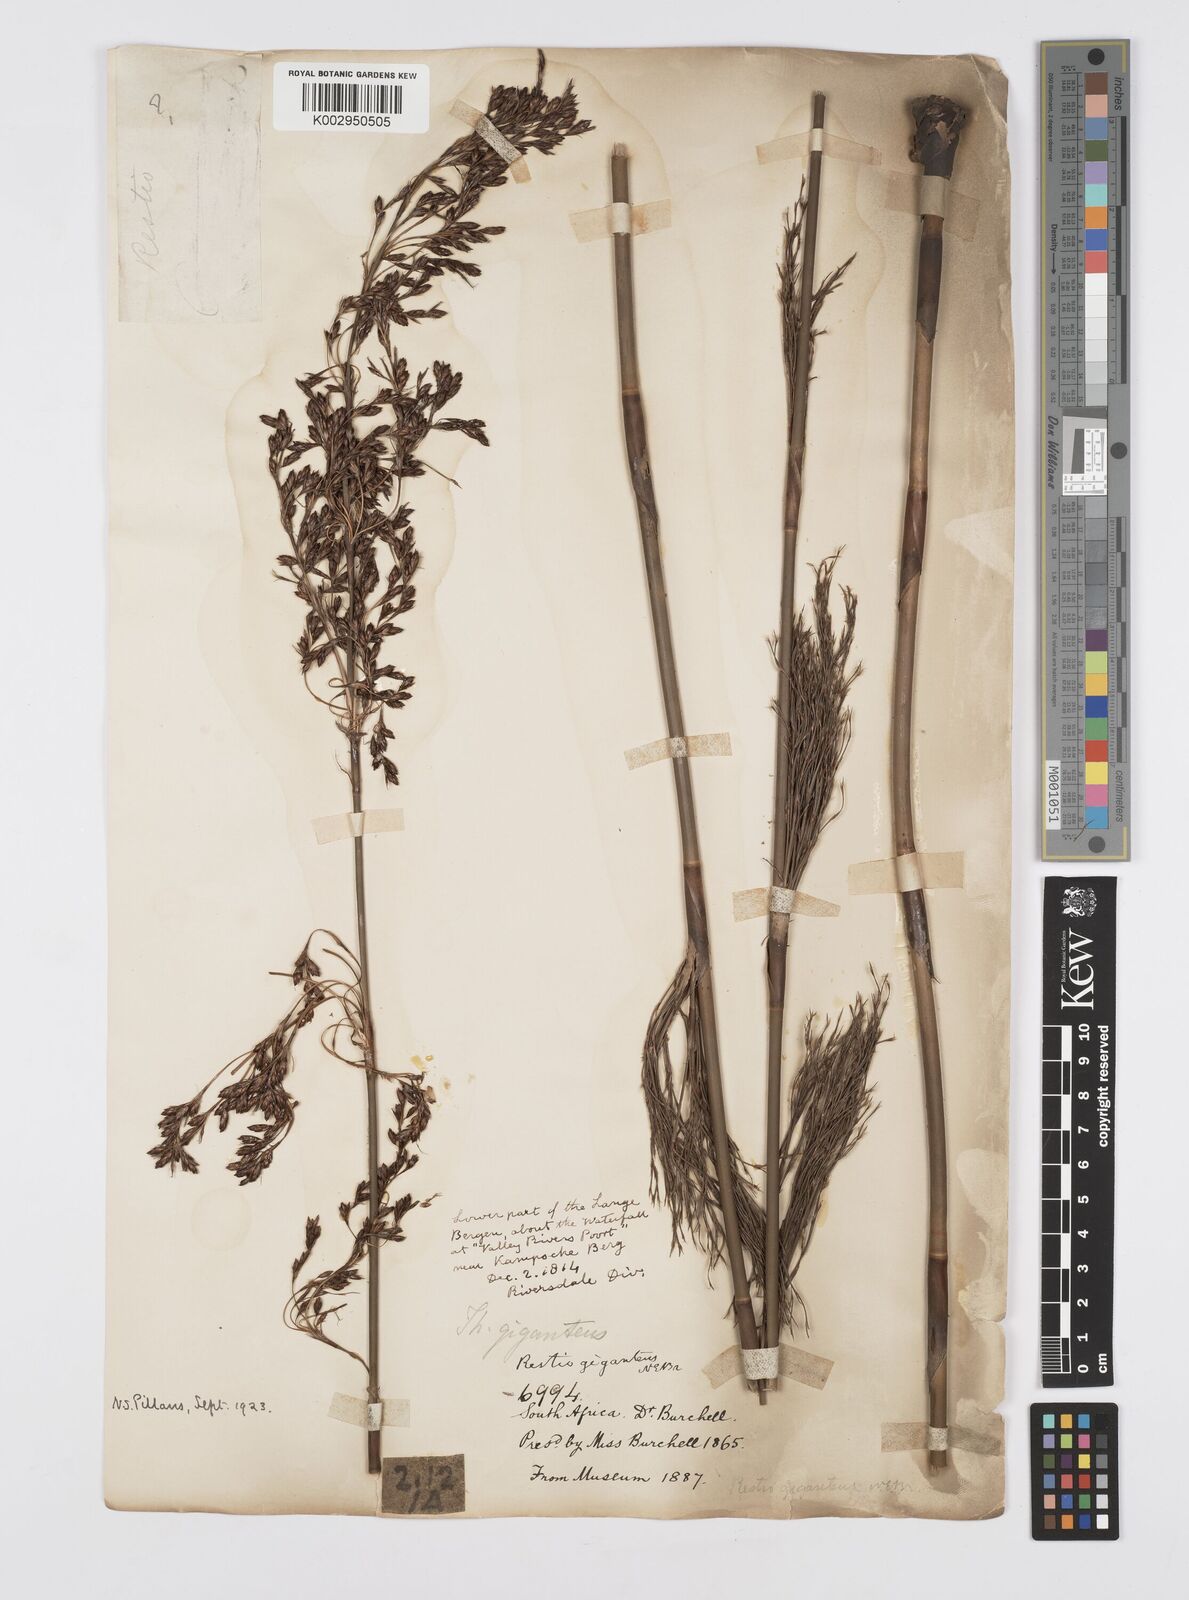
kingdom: Plantae
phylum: Tracheophyta
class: Liliopsida
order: Poales
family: Restionaceae
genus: Rhodocoma
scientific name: Rhodocoma foliosa
